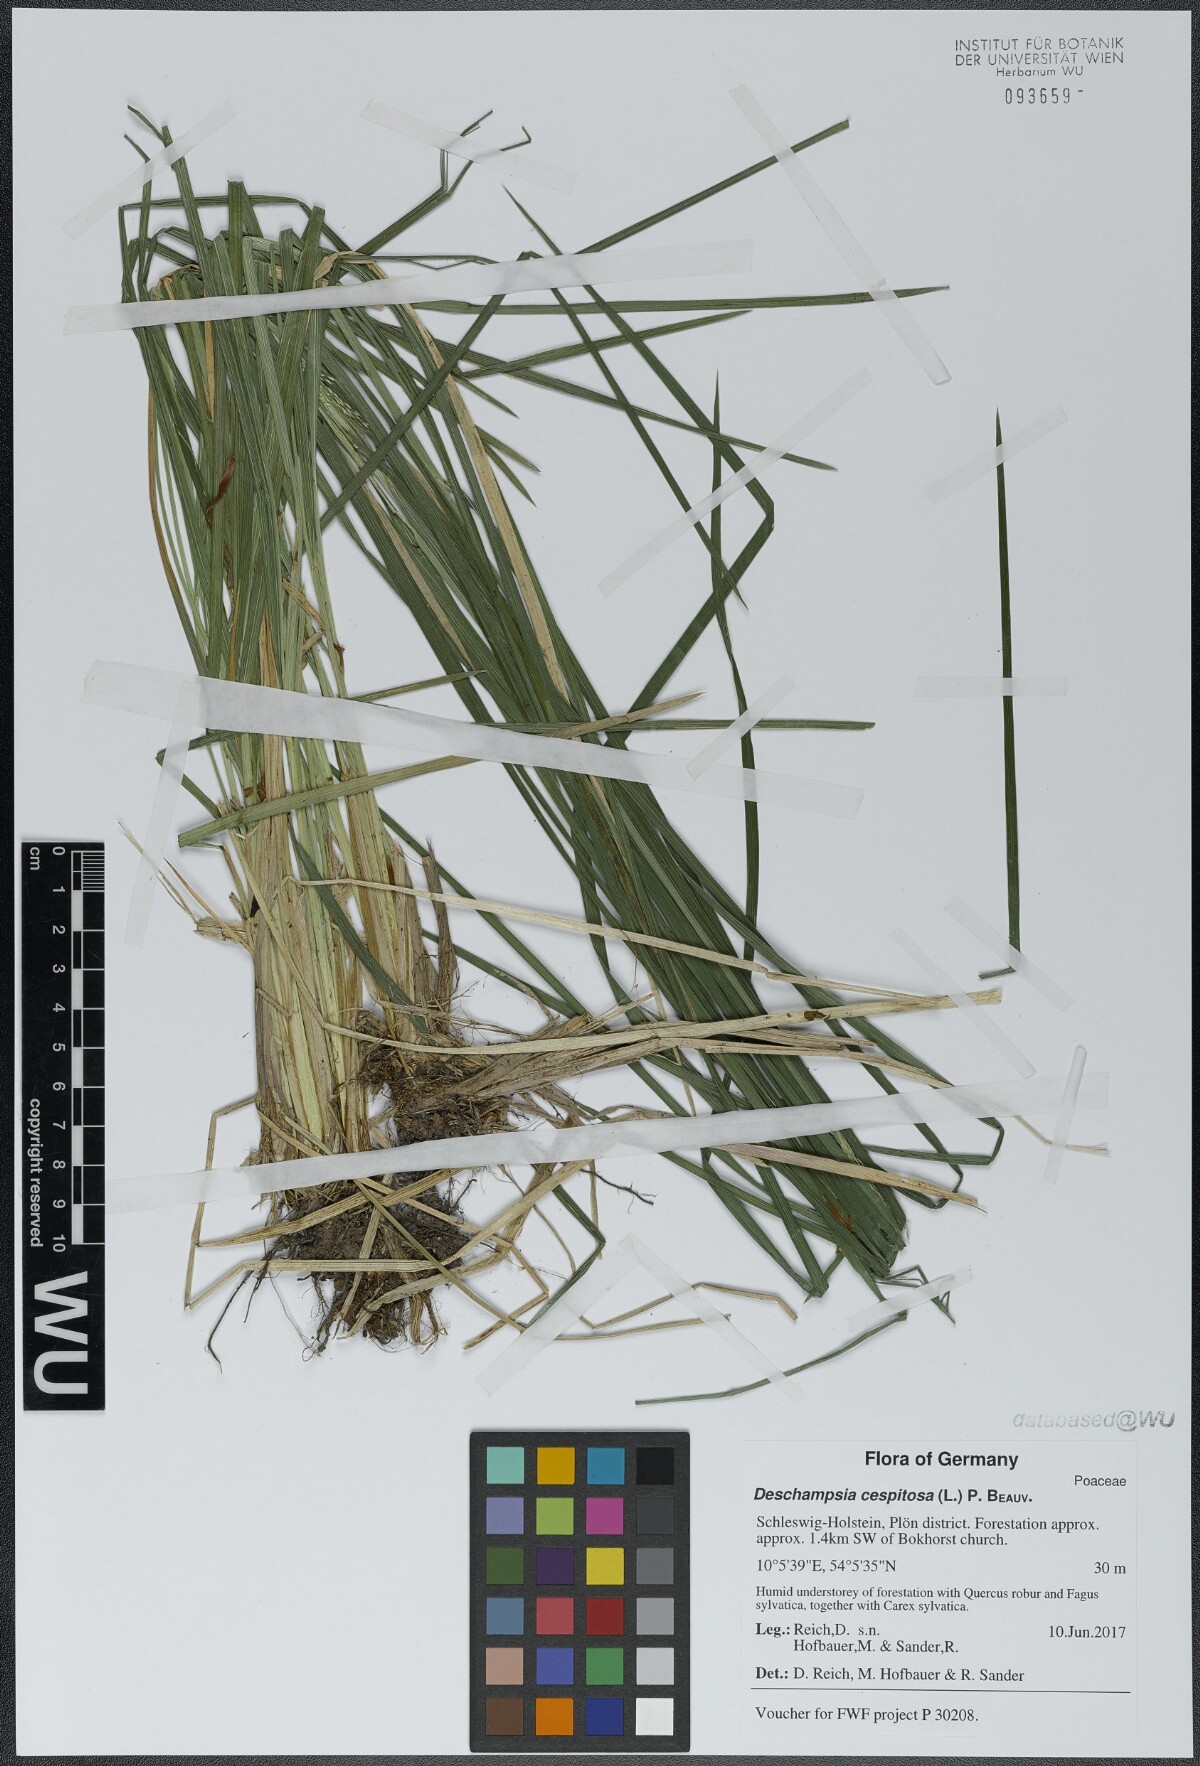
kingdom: Plantae
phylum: Tracheophyta
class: Liliopsida
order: Poales
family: Poaceae
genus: Deschampsia
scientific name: Deschampsia cespitosa
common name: Tufted hair-grass
